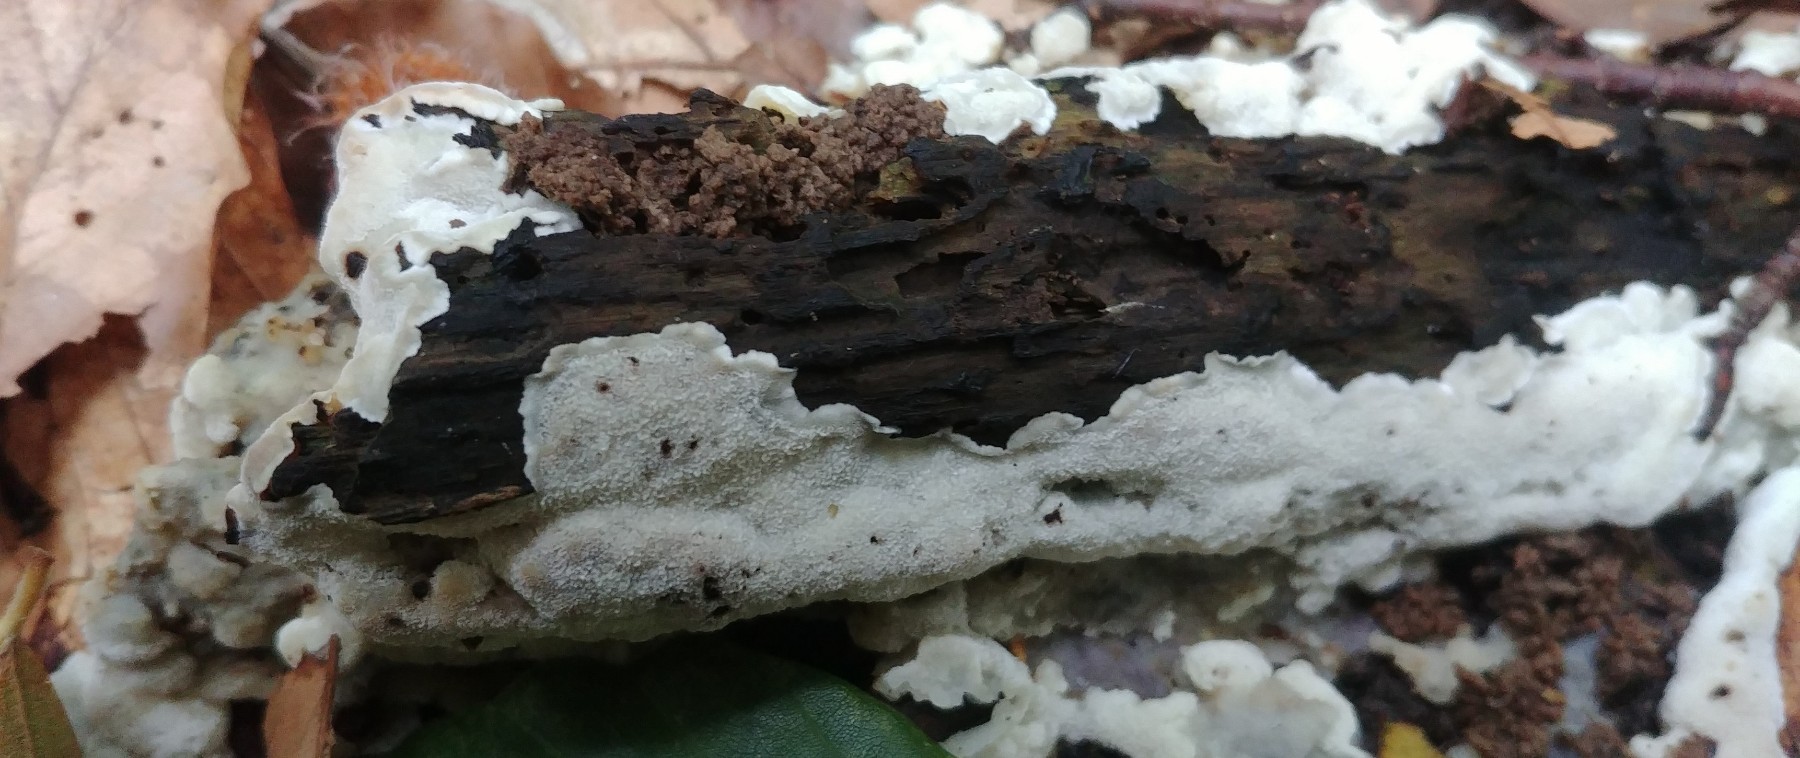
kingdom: Fungi
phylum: Basidiomycota
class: Agaricomycetes
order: Polyporales
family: Meruliaceae
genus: Physisporinus
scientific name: Physisporinus
